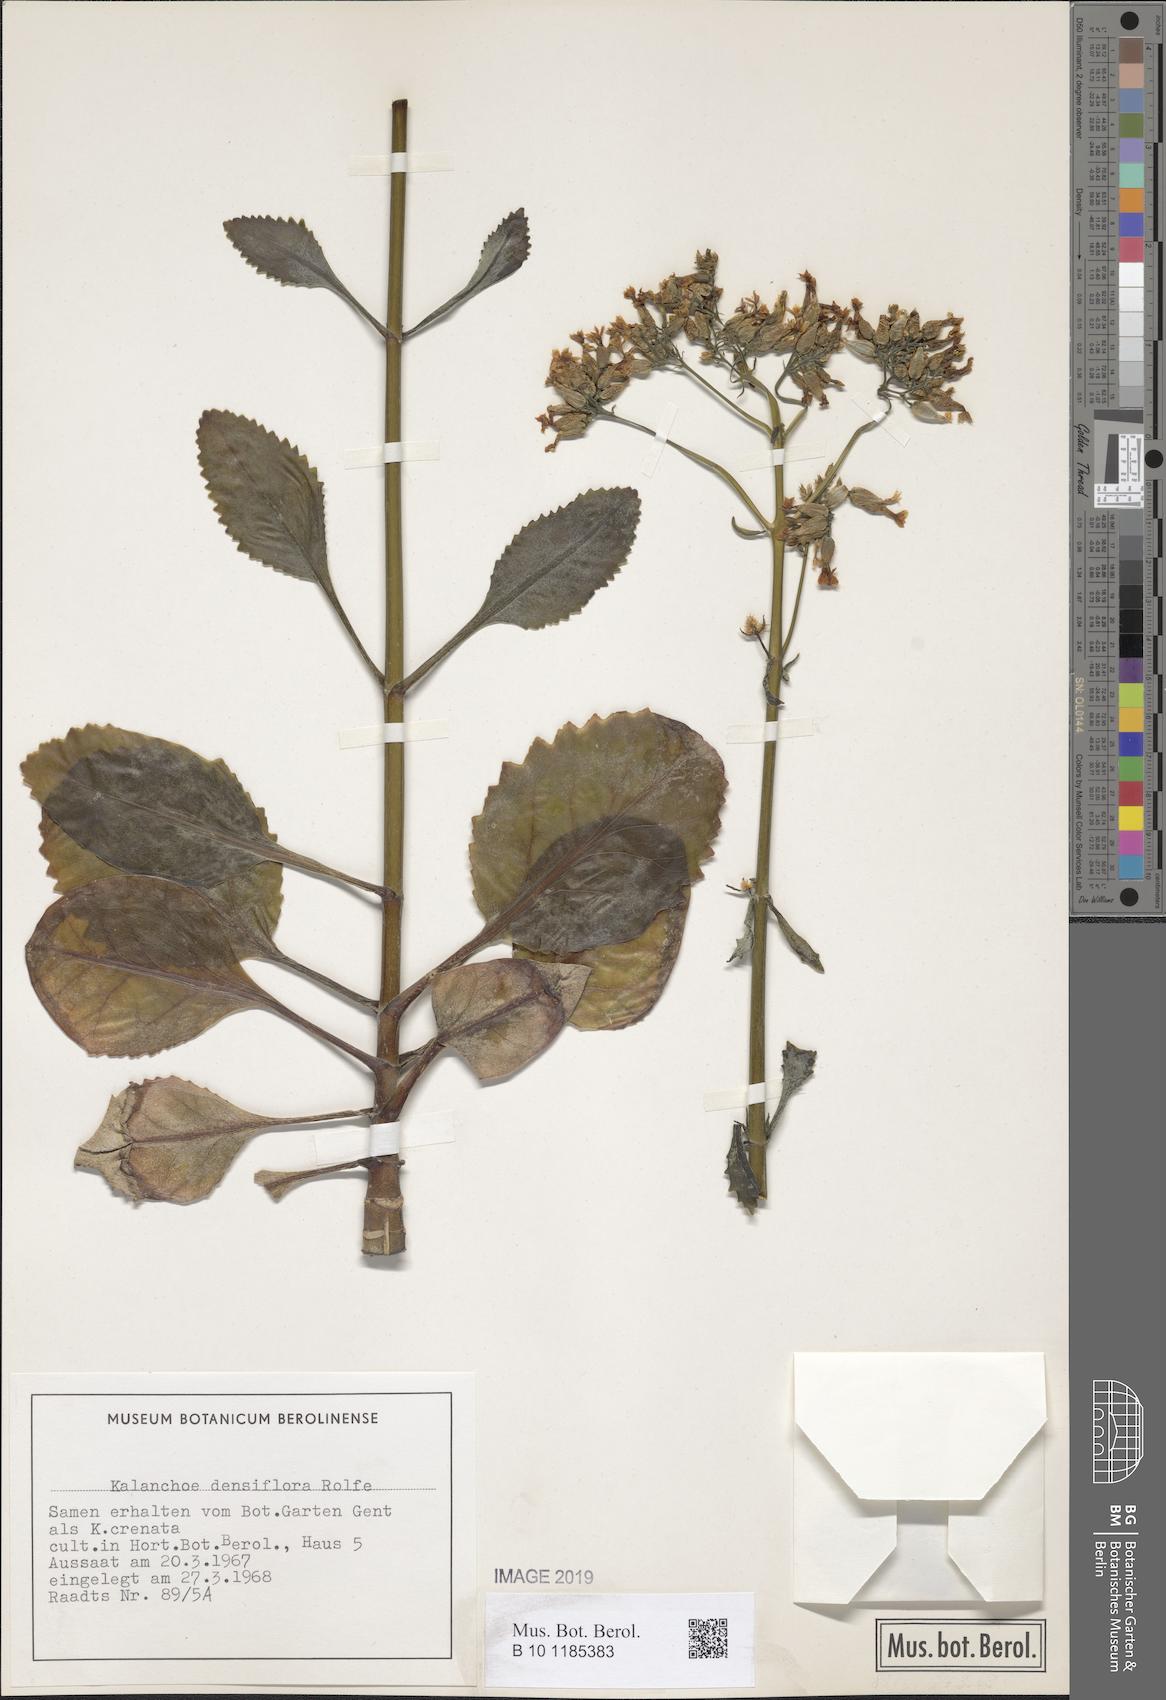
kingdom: Plantae
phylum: Tracheophyta
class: Magnoliopsida
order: Saxifragales
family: Crassulaceae
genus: Kalanchoe
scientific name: Kalanchoe densiflora
